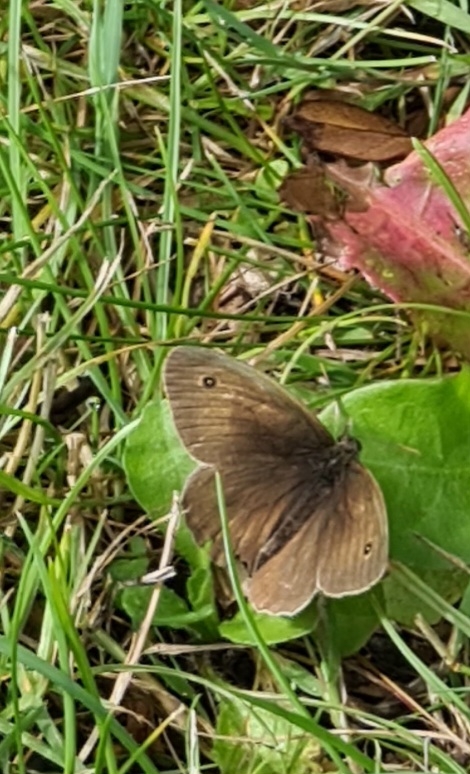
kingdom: Animalia
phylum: Arthropoda
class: Insecta
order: Lepidoptera
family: Nymphalidae
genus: Maniola
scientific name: Maniola jurtina
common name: Græsrandøje
